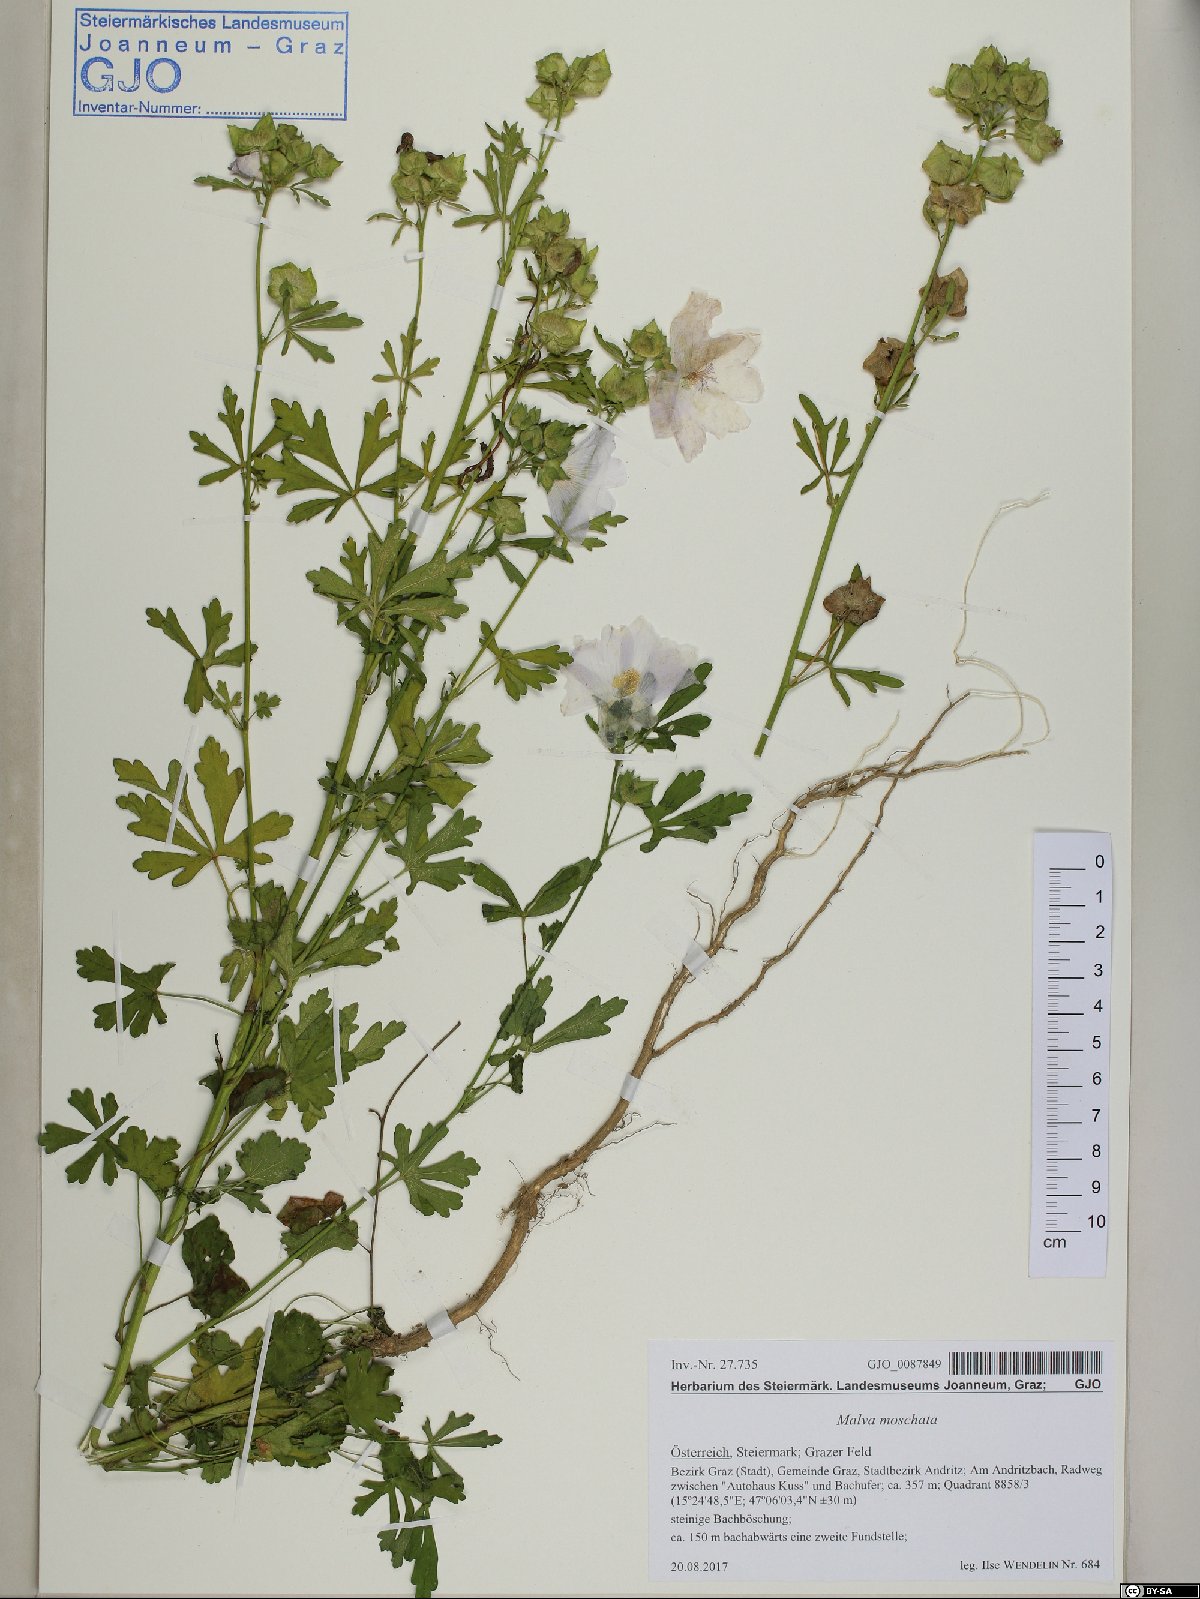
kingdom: Plantae
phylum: Tracheophyta
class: Magnoliopsida
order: Malvales
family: Malvaceae
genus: Malva
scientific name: Malva moschata
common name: Musk mallow
